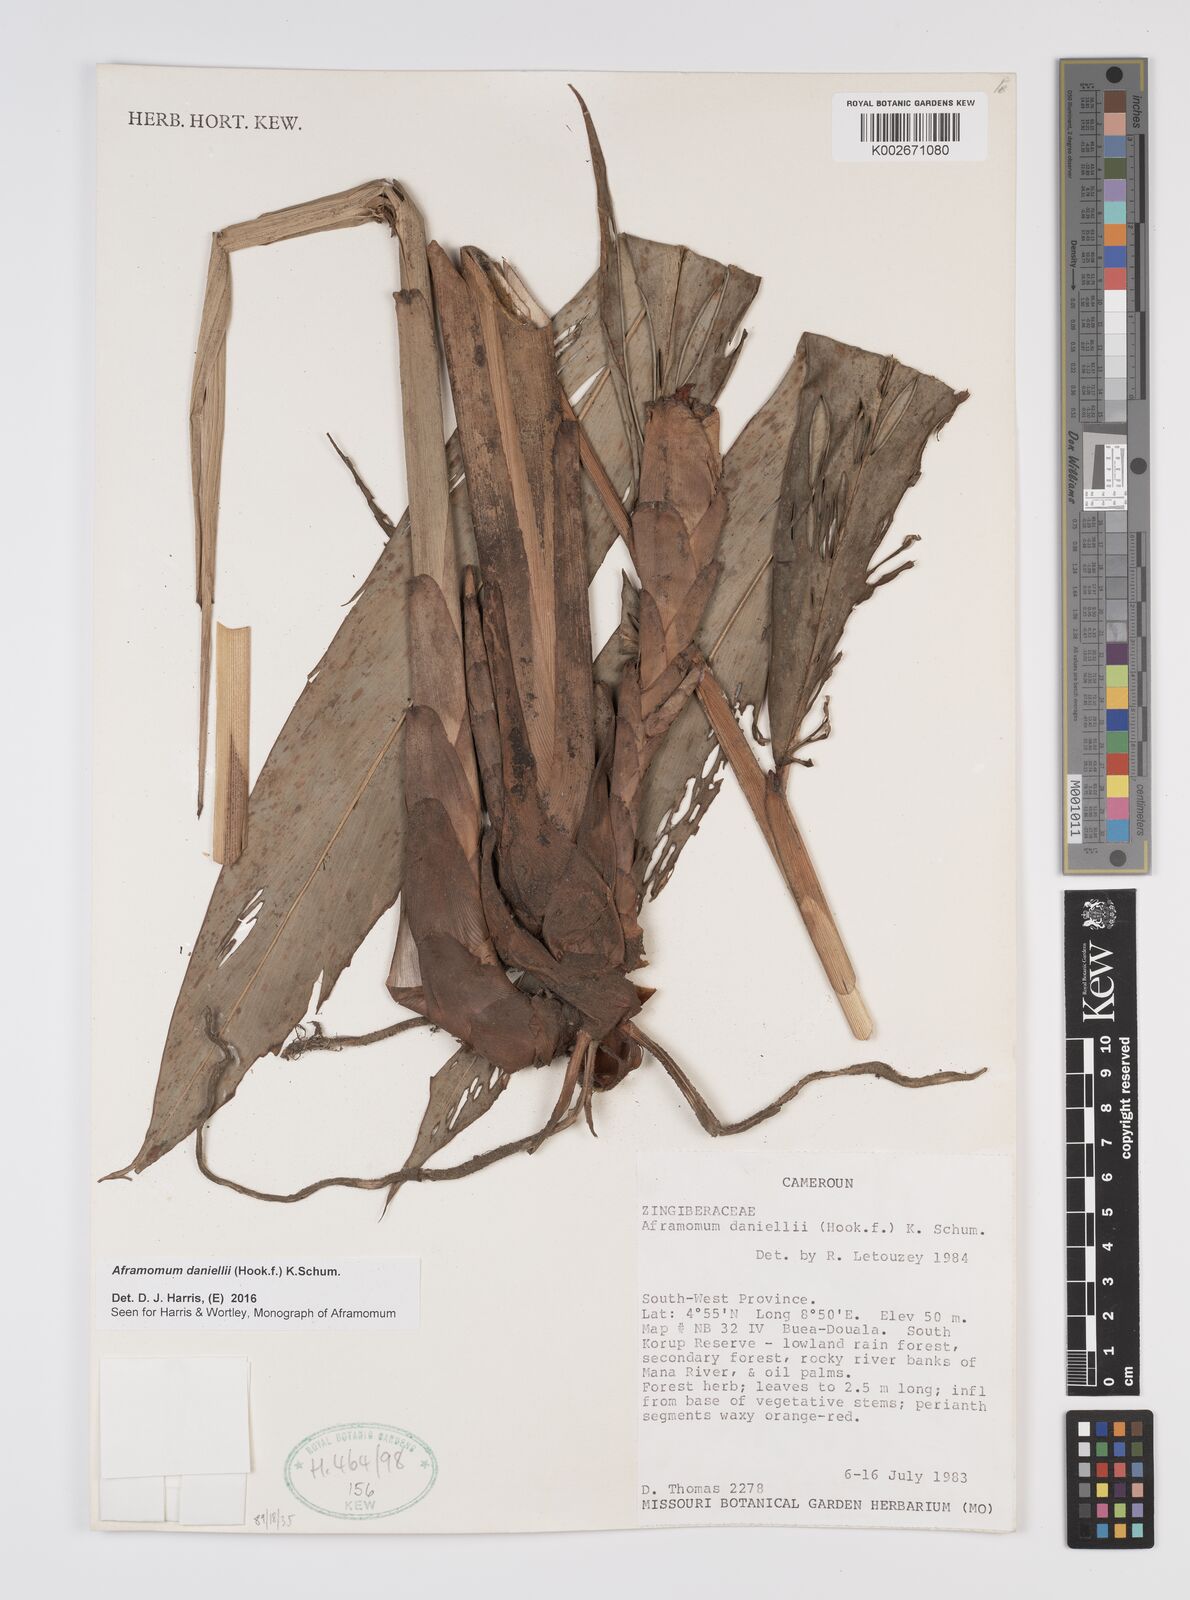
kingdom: Plantae
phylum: Tracheophyta
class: Liliopsida
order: Zingiberales
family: Zingiberaceae
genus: Aframomum
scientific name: Aframomum daniellii
